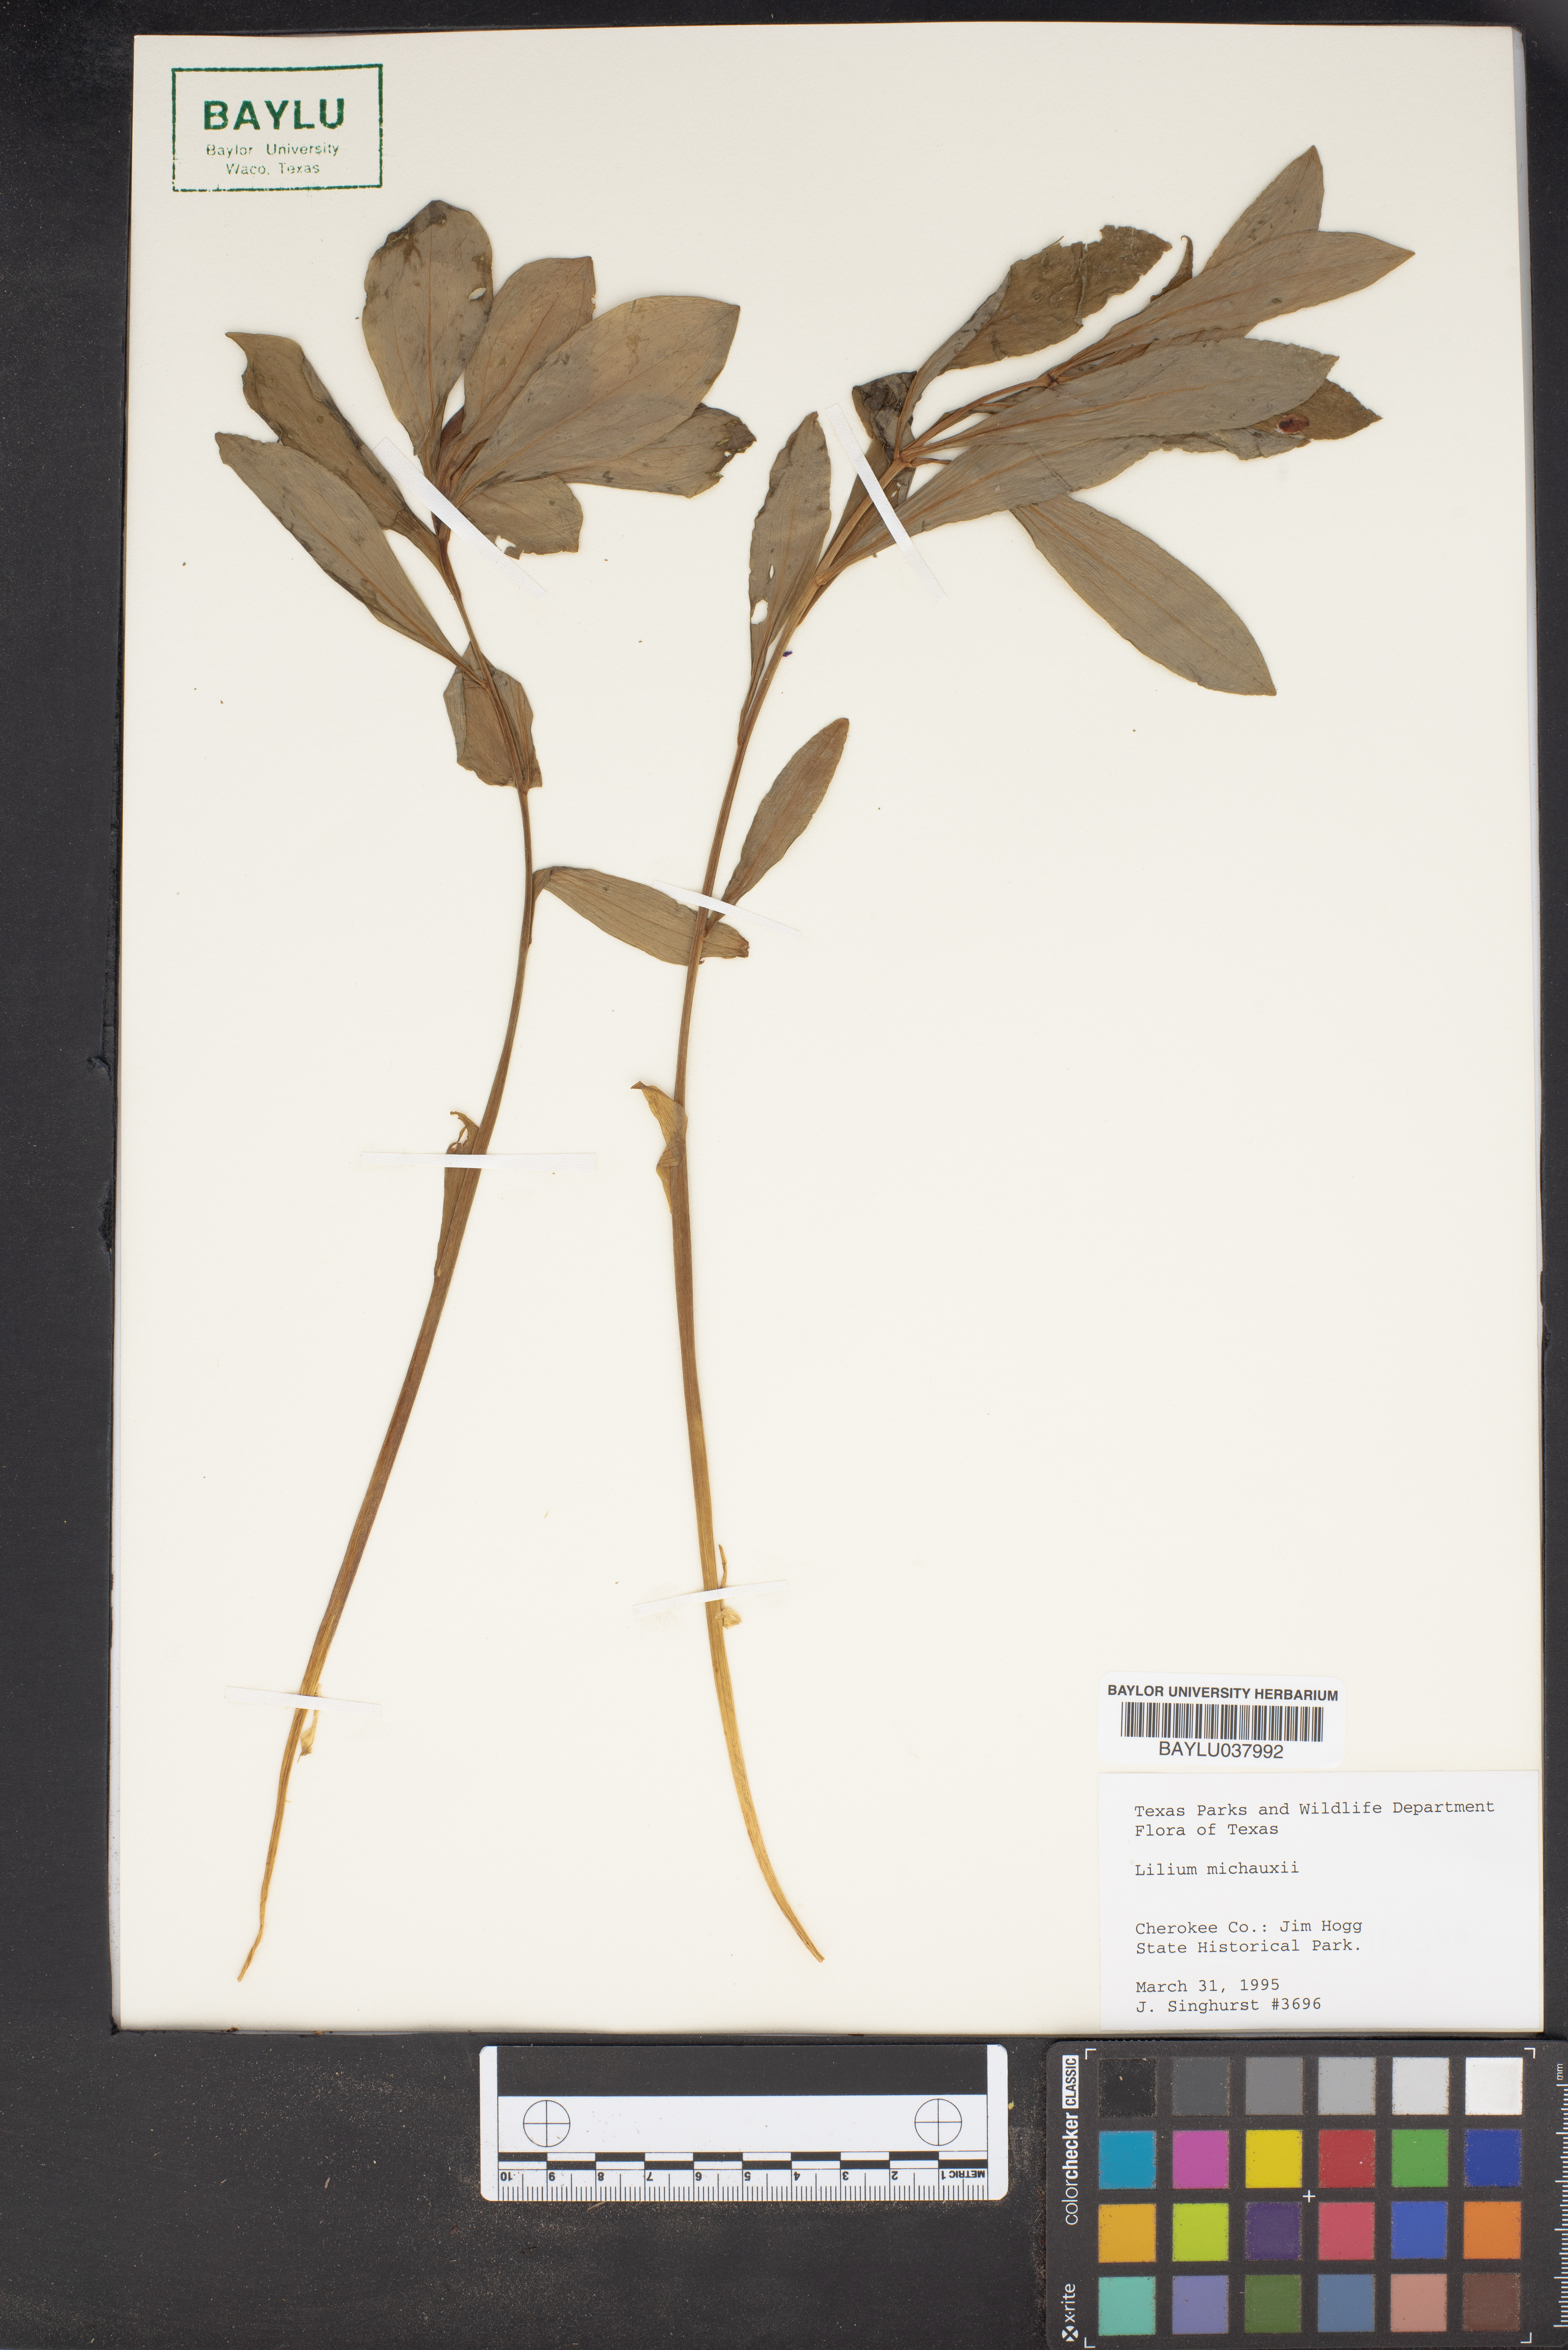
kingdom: Plantae
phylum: Tracheophyta
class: Liliopsida
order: Liliales
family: Liliaceae
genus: Lilium
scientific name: Lilium michauxii
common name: Carolina lily
